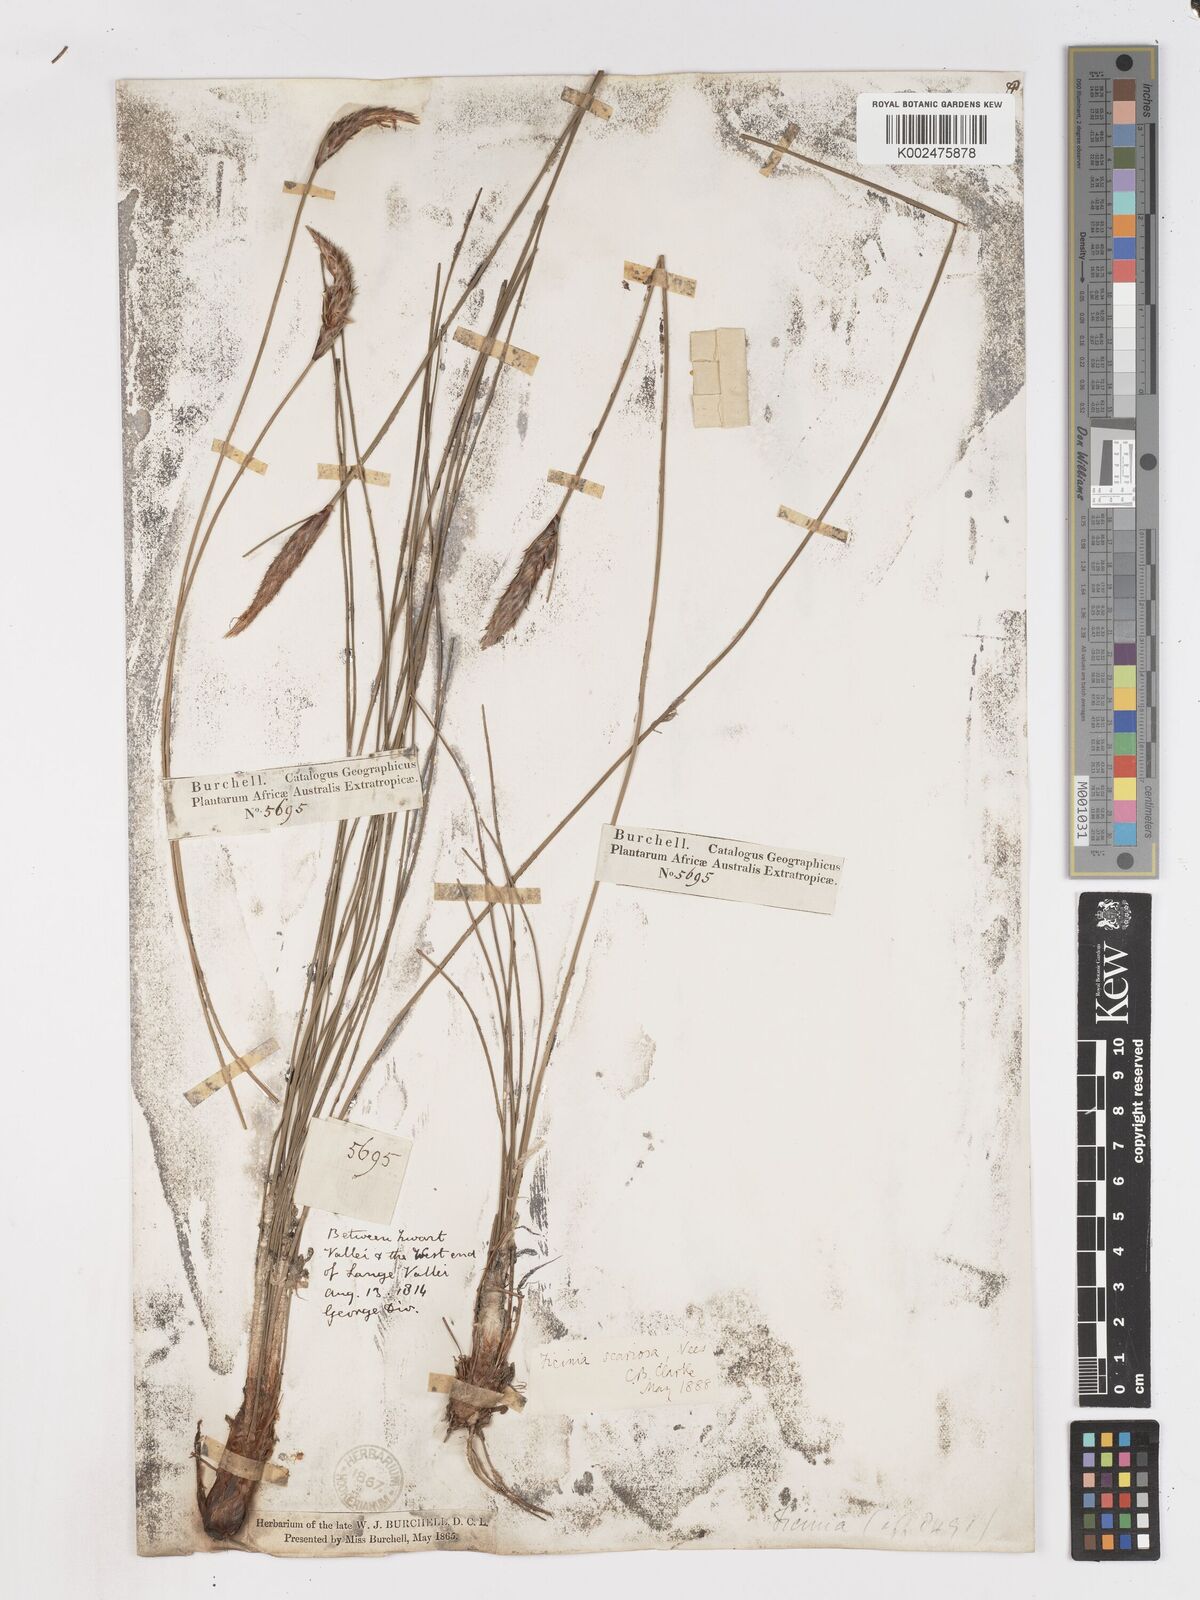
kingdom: Plantae
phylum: Tracheophyta
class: Liliopsida
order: Poales
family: Cyperaceae
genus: Ficinia
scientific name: Ficinia deusta
